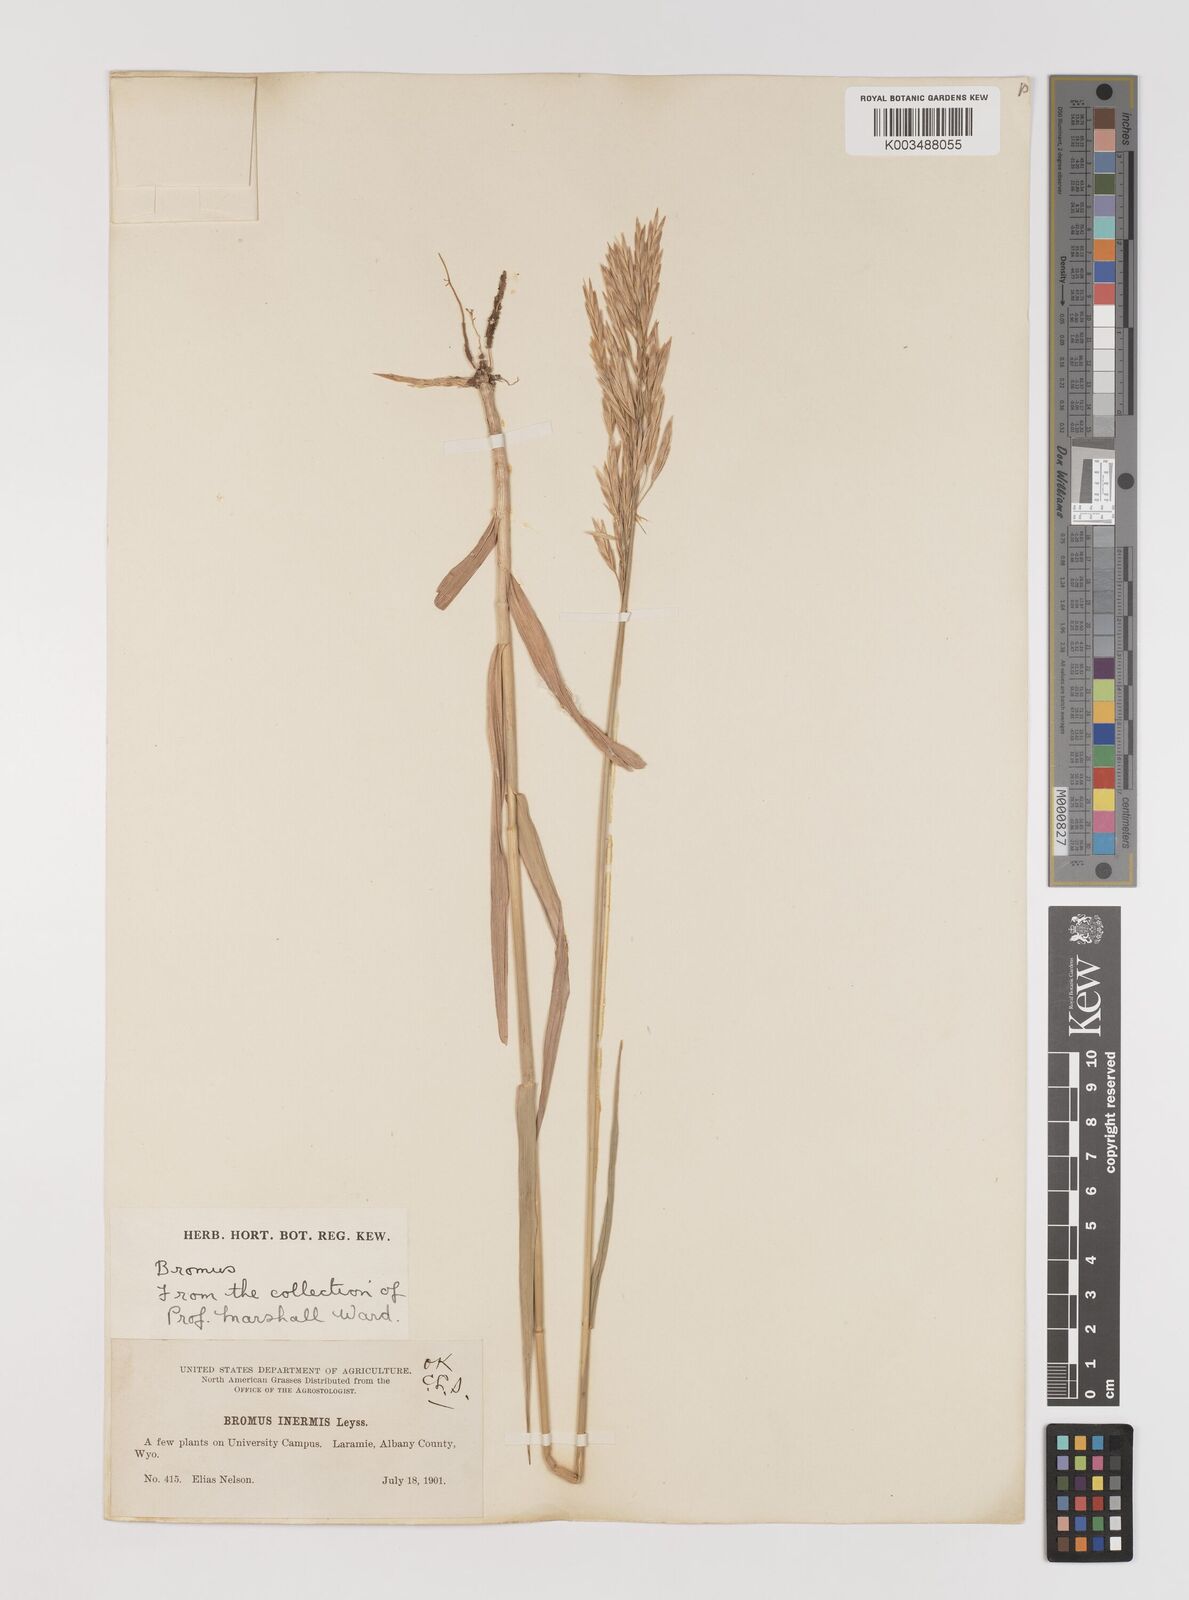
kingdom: Plantae
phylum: Tracheophyta
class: Liliopsida
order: Poales
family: Poaceae
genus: Bromus
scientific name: Bromus inermis
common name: Smooth brome
